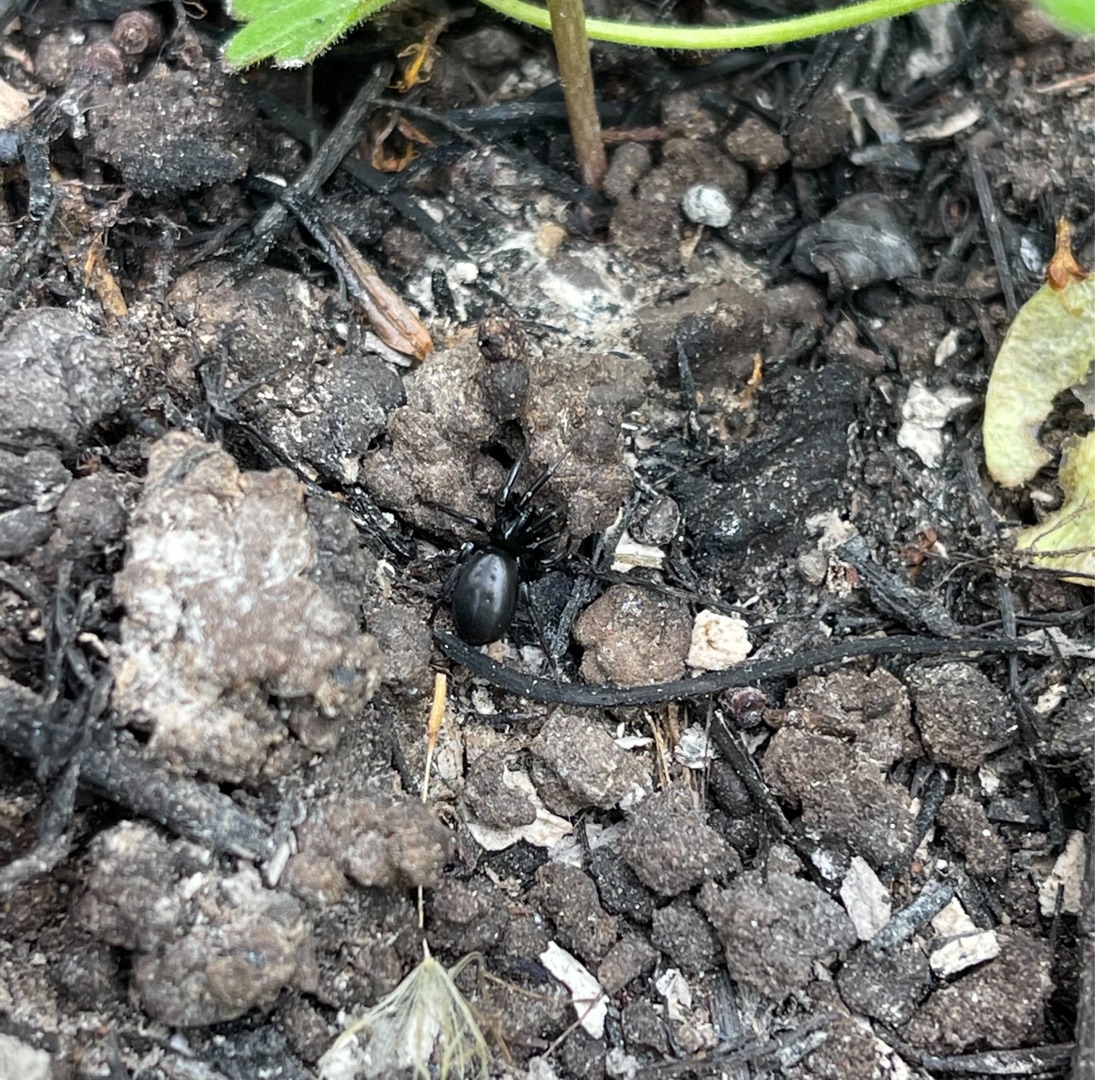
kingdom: Animalia
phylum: Arthropoda
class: Arachnida
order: Araneae
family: Gnaphosidae
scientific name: Gnaphosidae
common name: Museedderkopper
